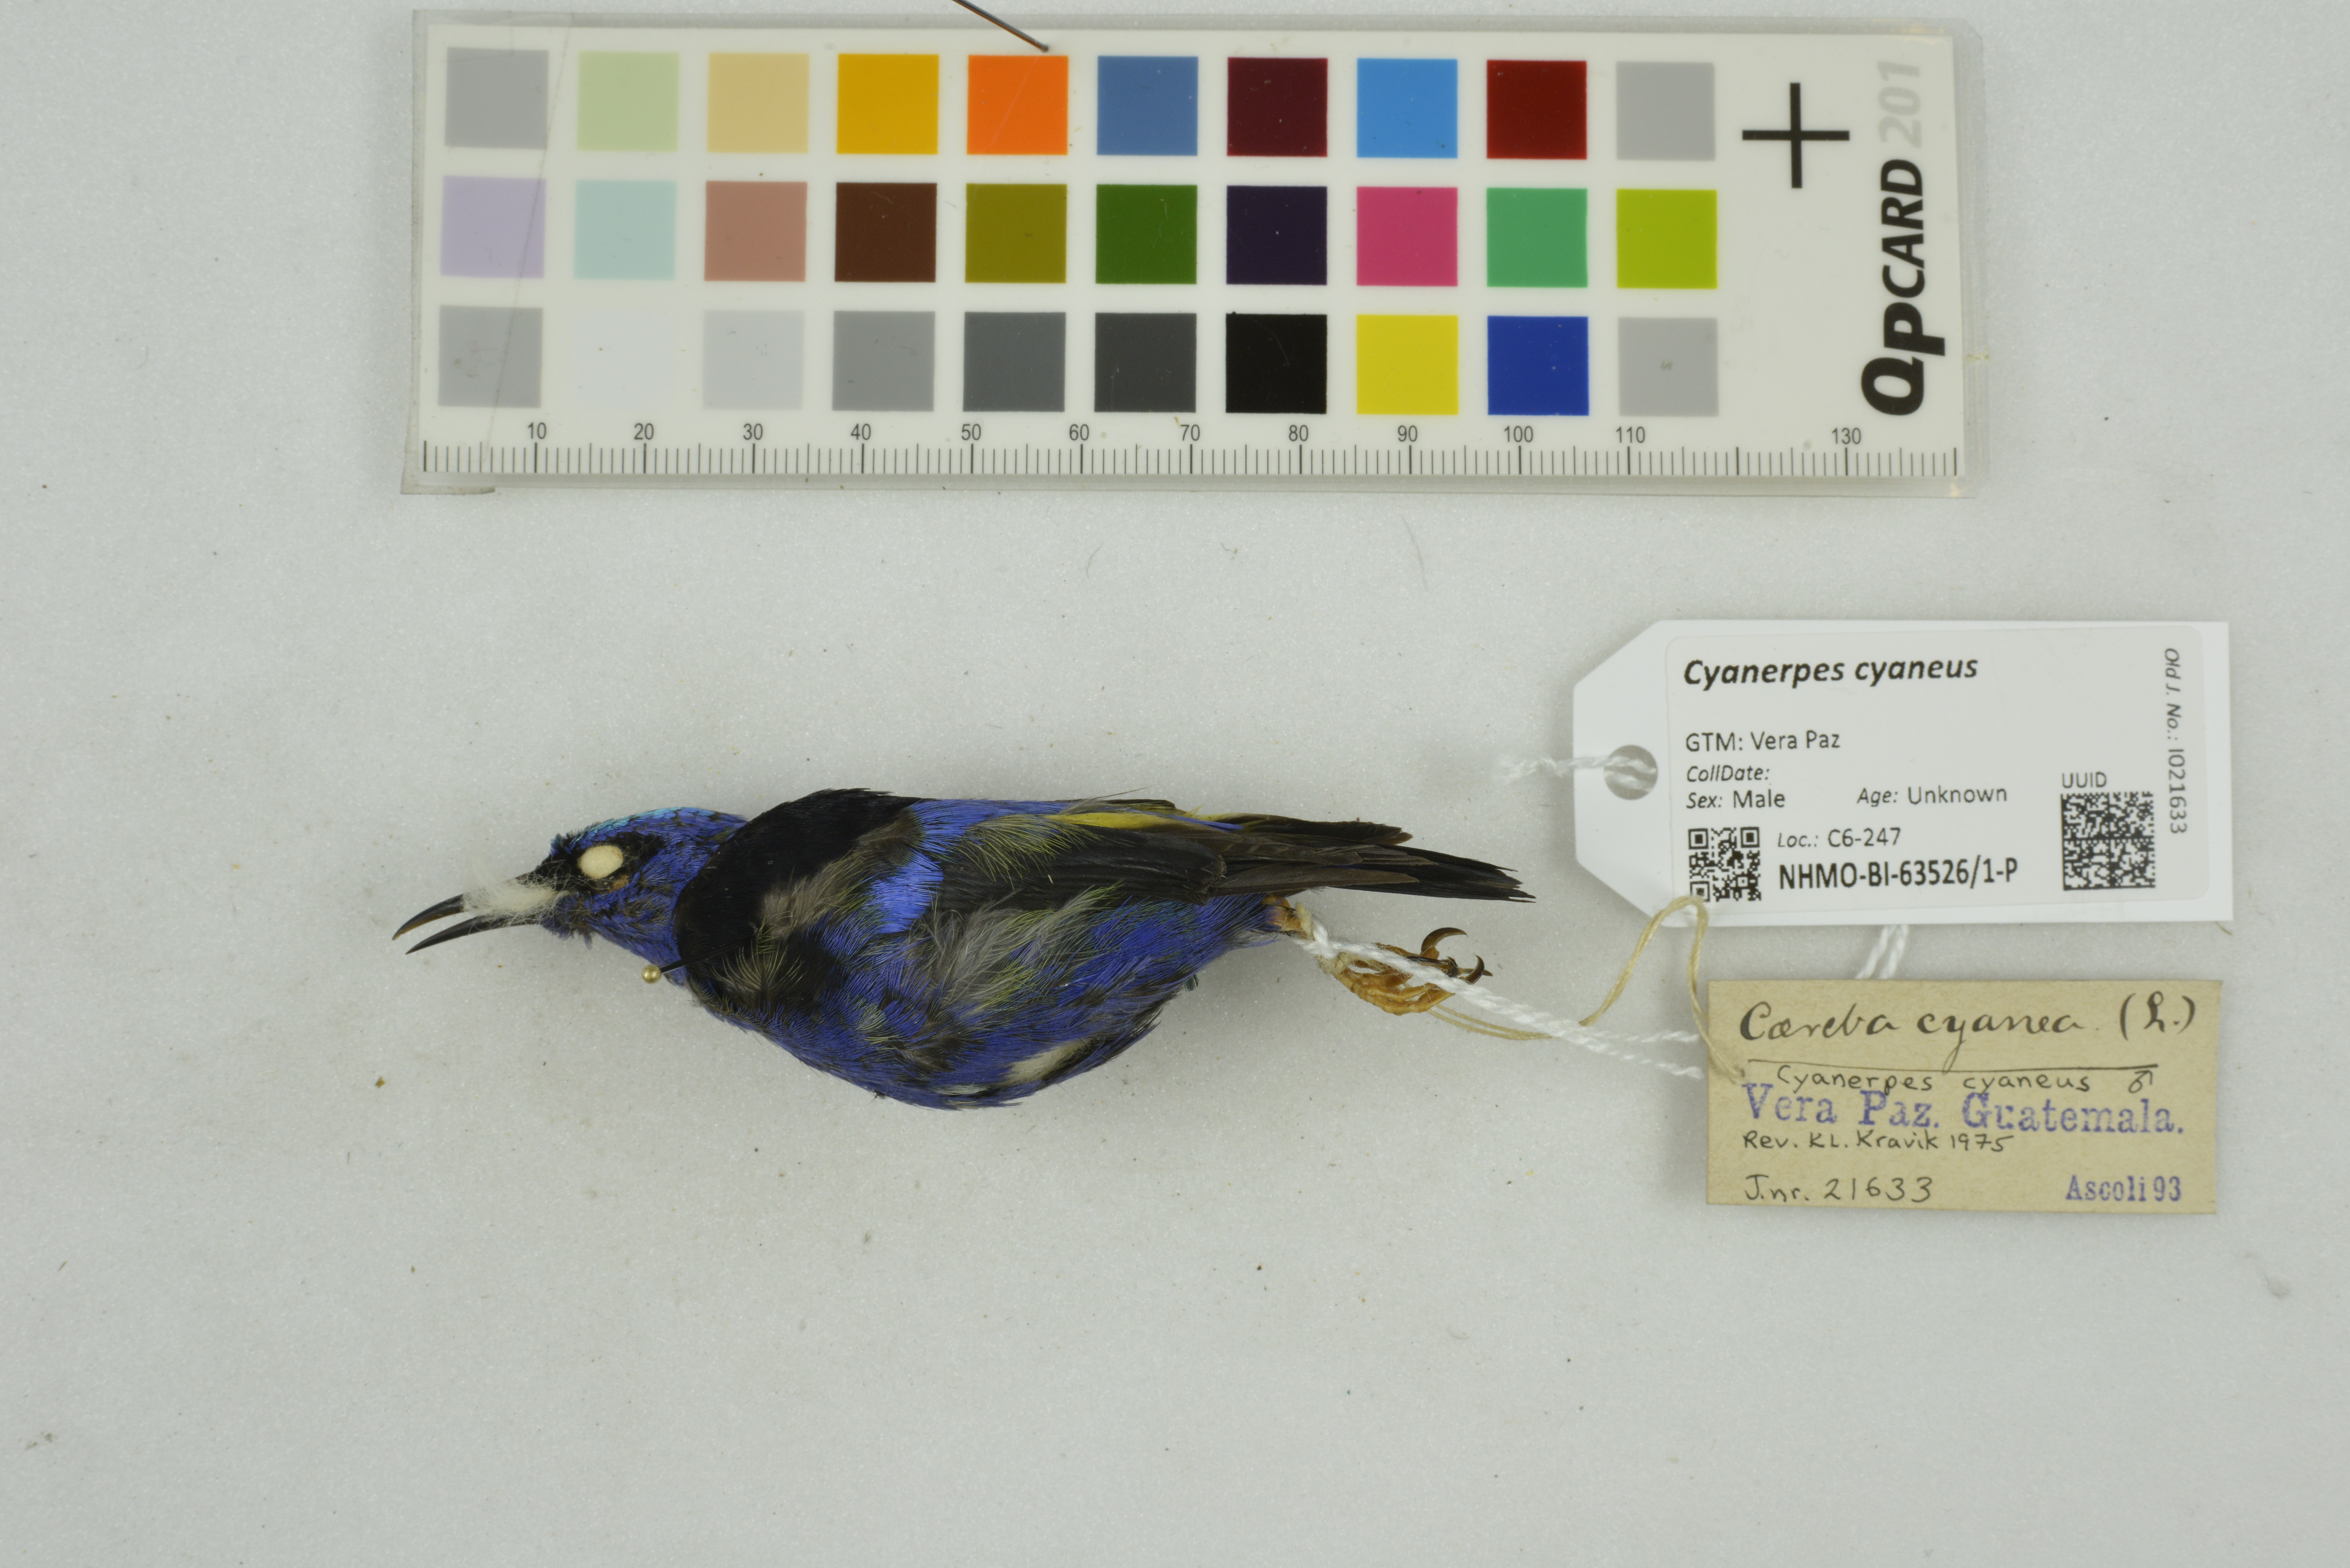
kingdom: Animalia
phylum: Chordata
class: Aves
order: Passeriformes
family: Thraupidae
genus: Cyanerpes
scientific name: Cyanerpes cyaneus
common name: Red-legged honeycreeper
